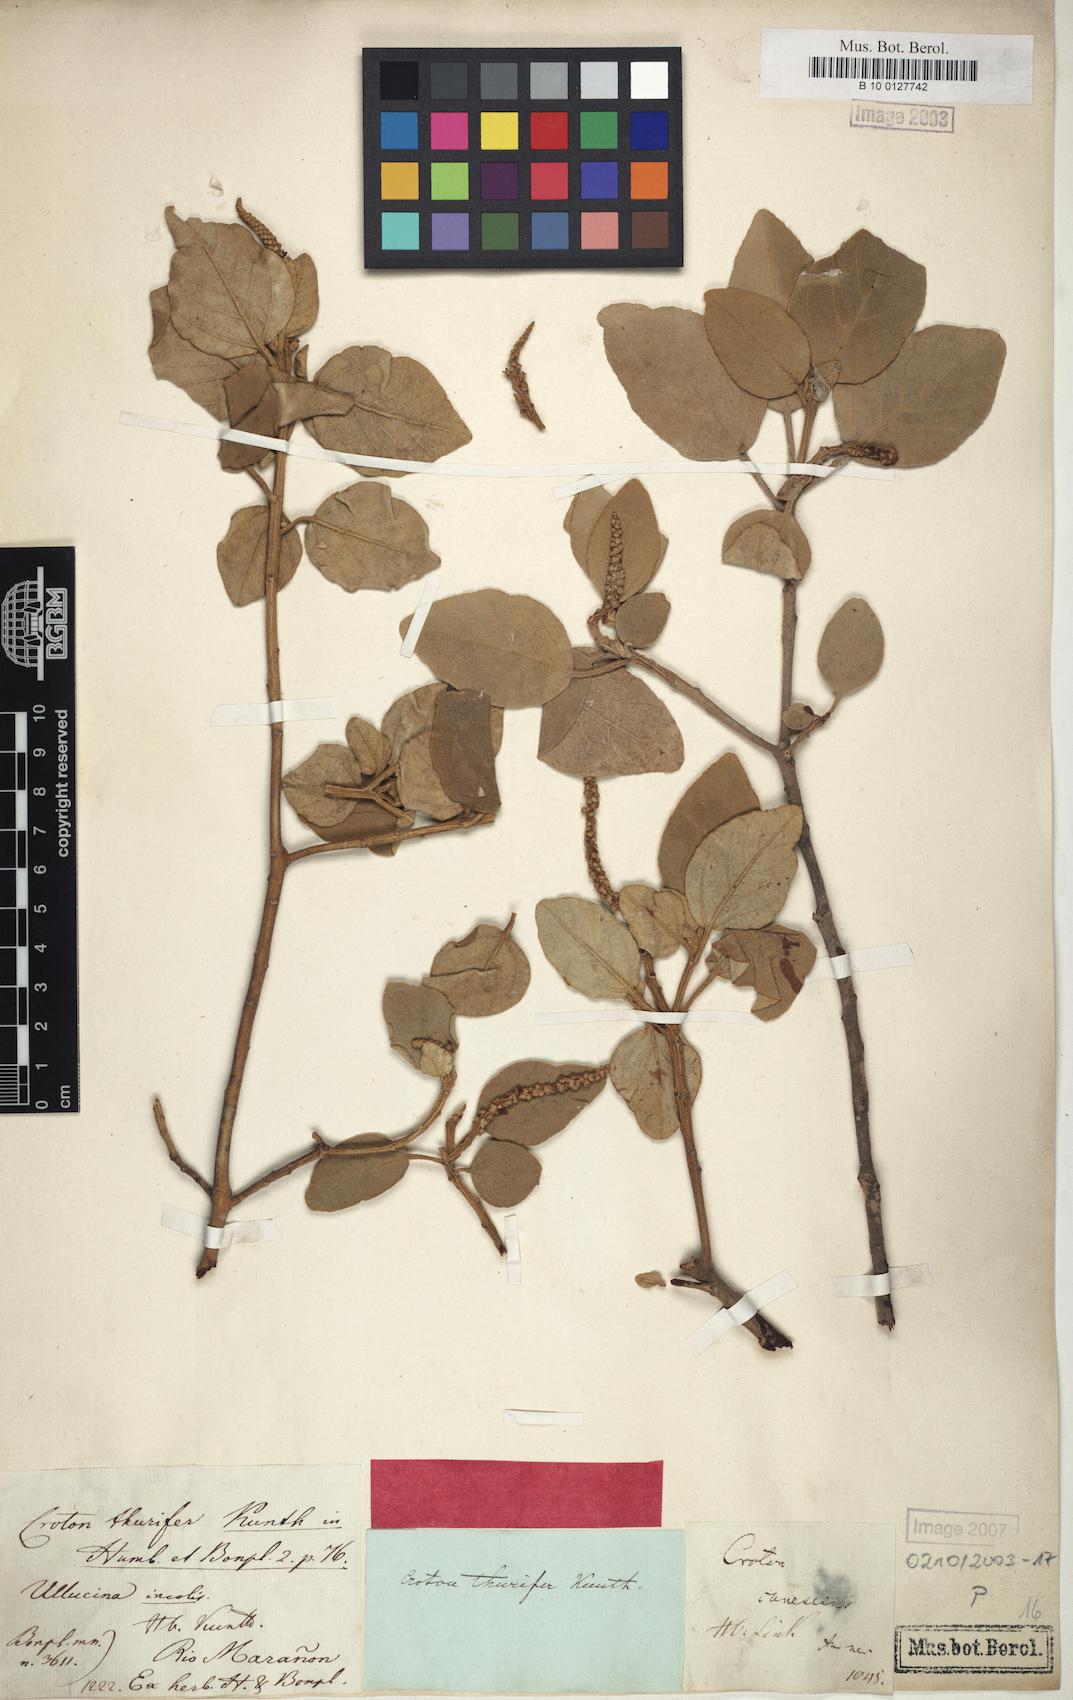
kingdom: Plantae
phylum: Tracheophyta
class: Magnoliopsida
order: Malpighiales
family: Euphorbiaceae
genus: Croton
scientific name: Croton thurifer
